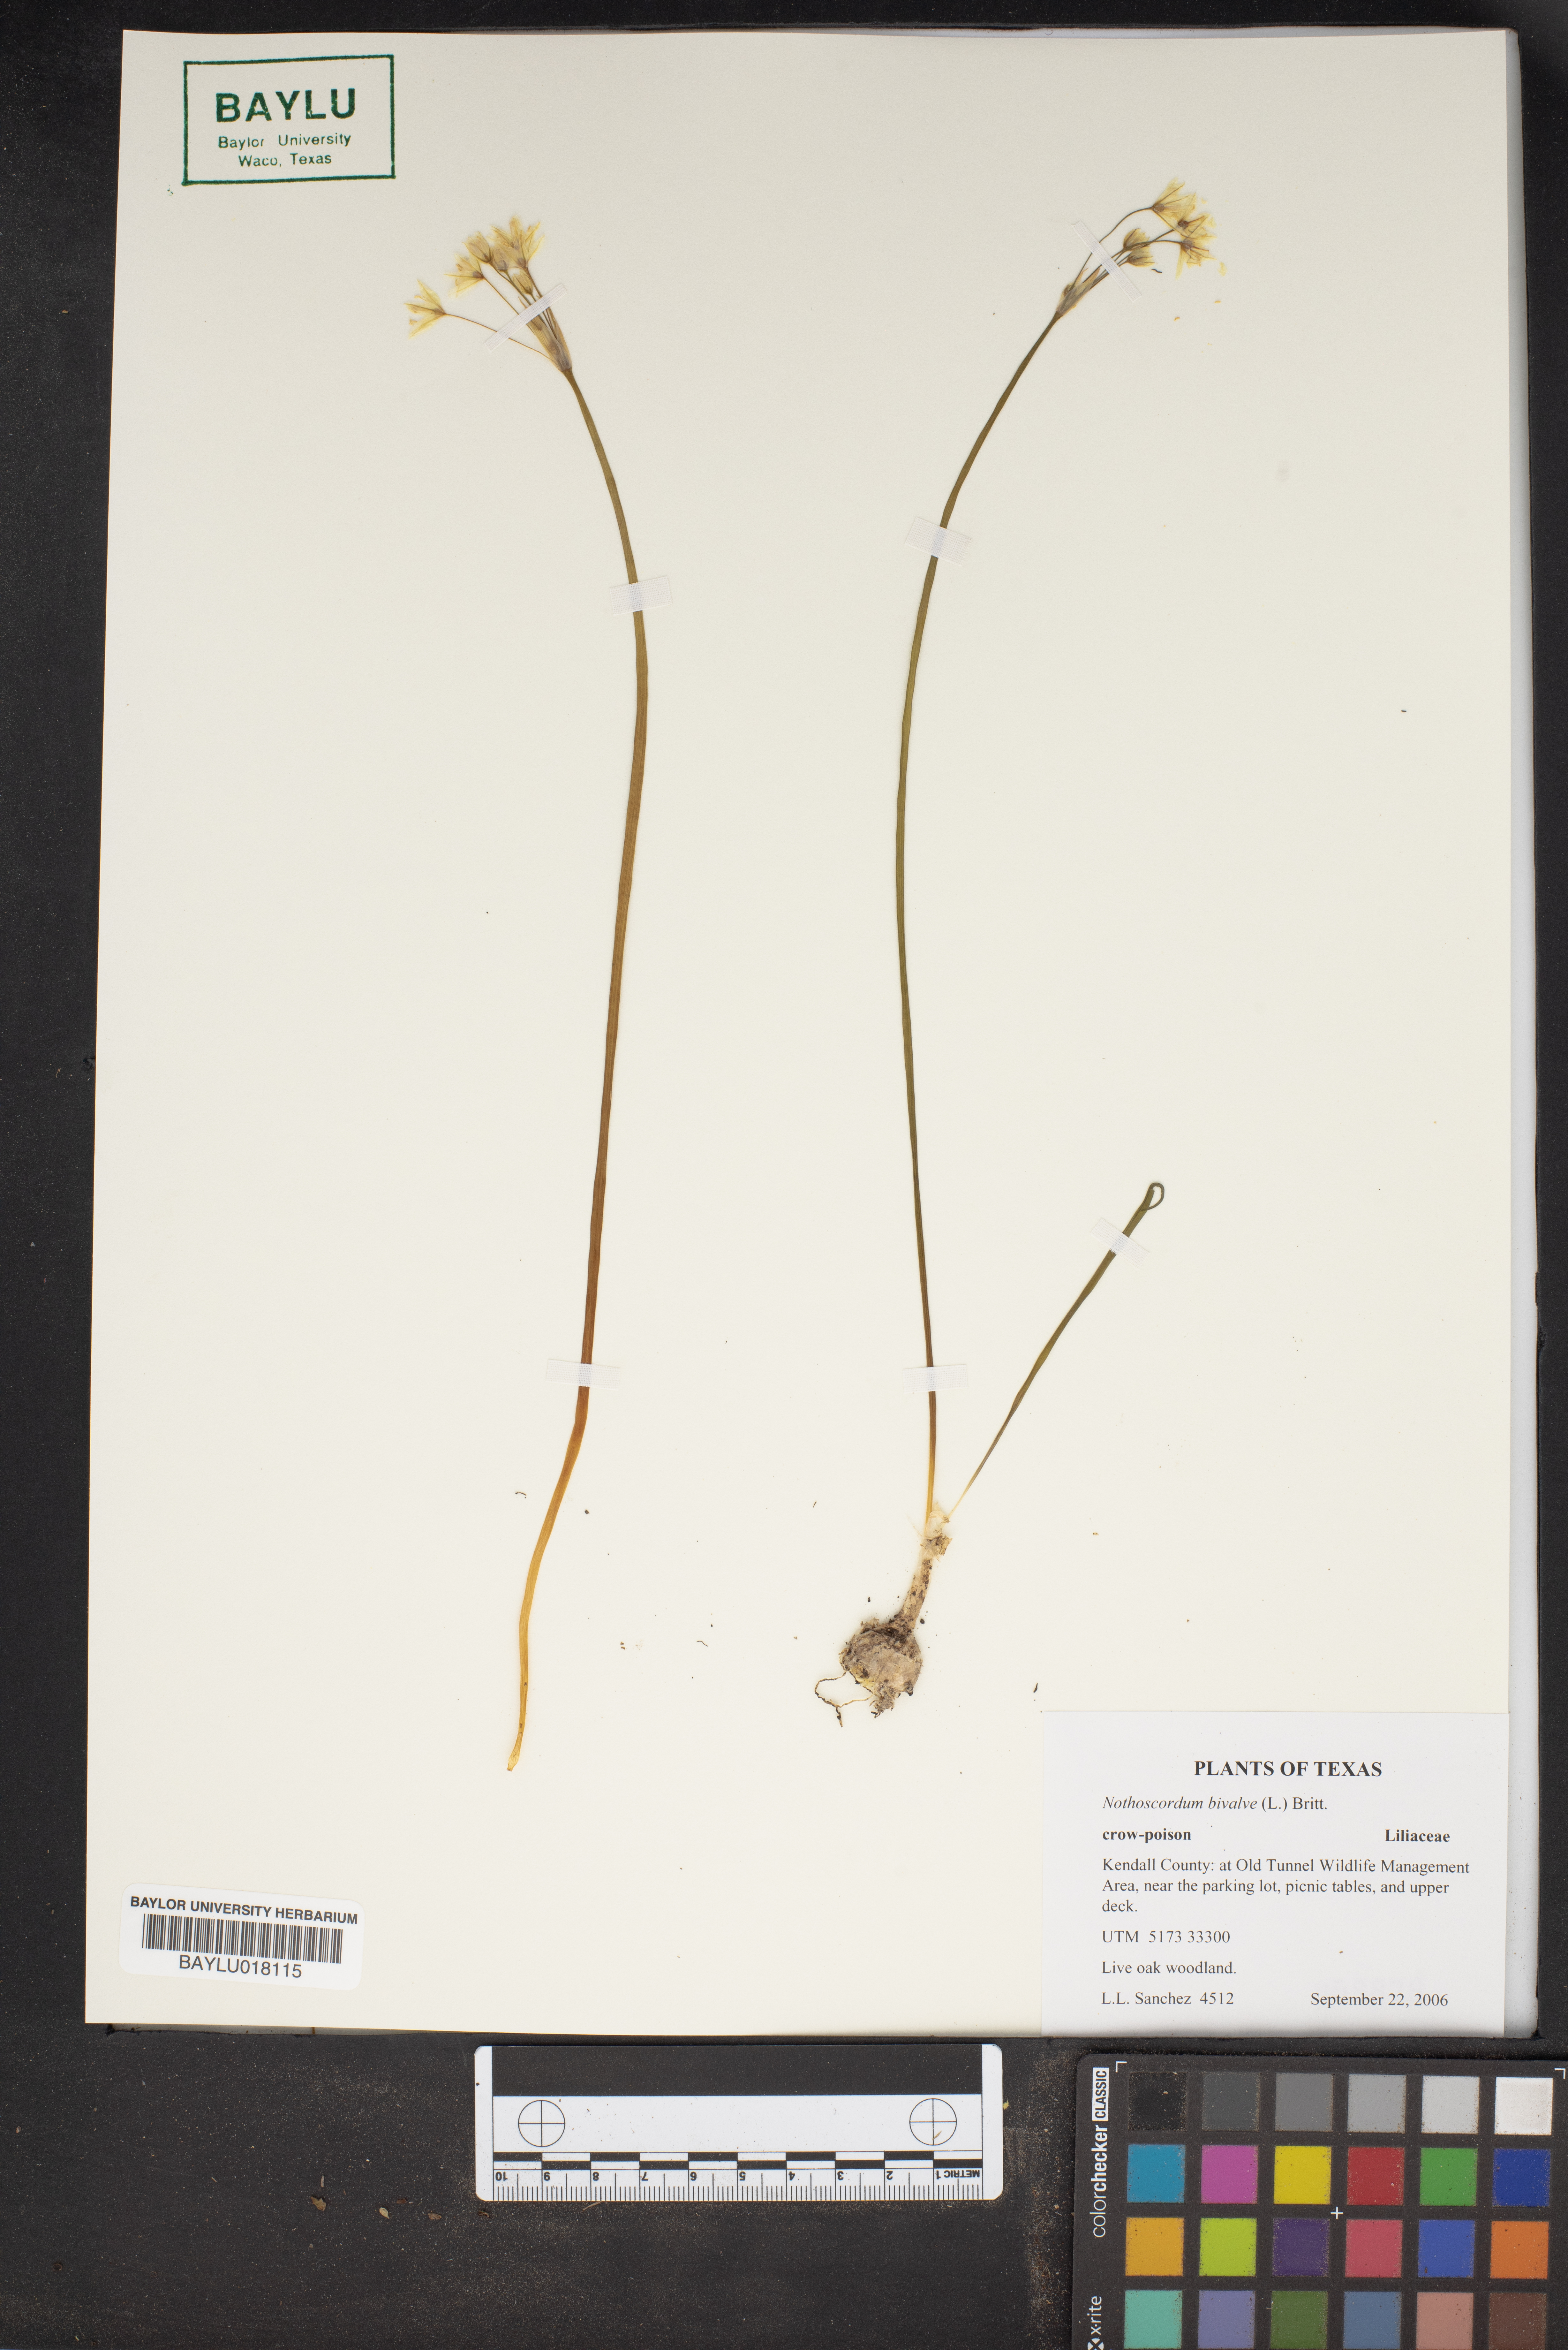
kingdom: Plantae
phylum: Tracheophyta
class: Liliopsida
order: Asparagales
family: Amaryllidaceae
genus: Nothoscordum
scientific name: Nothoscordum bivalve
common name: Crow-poison
